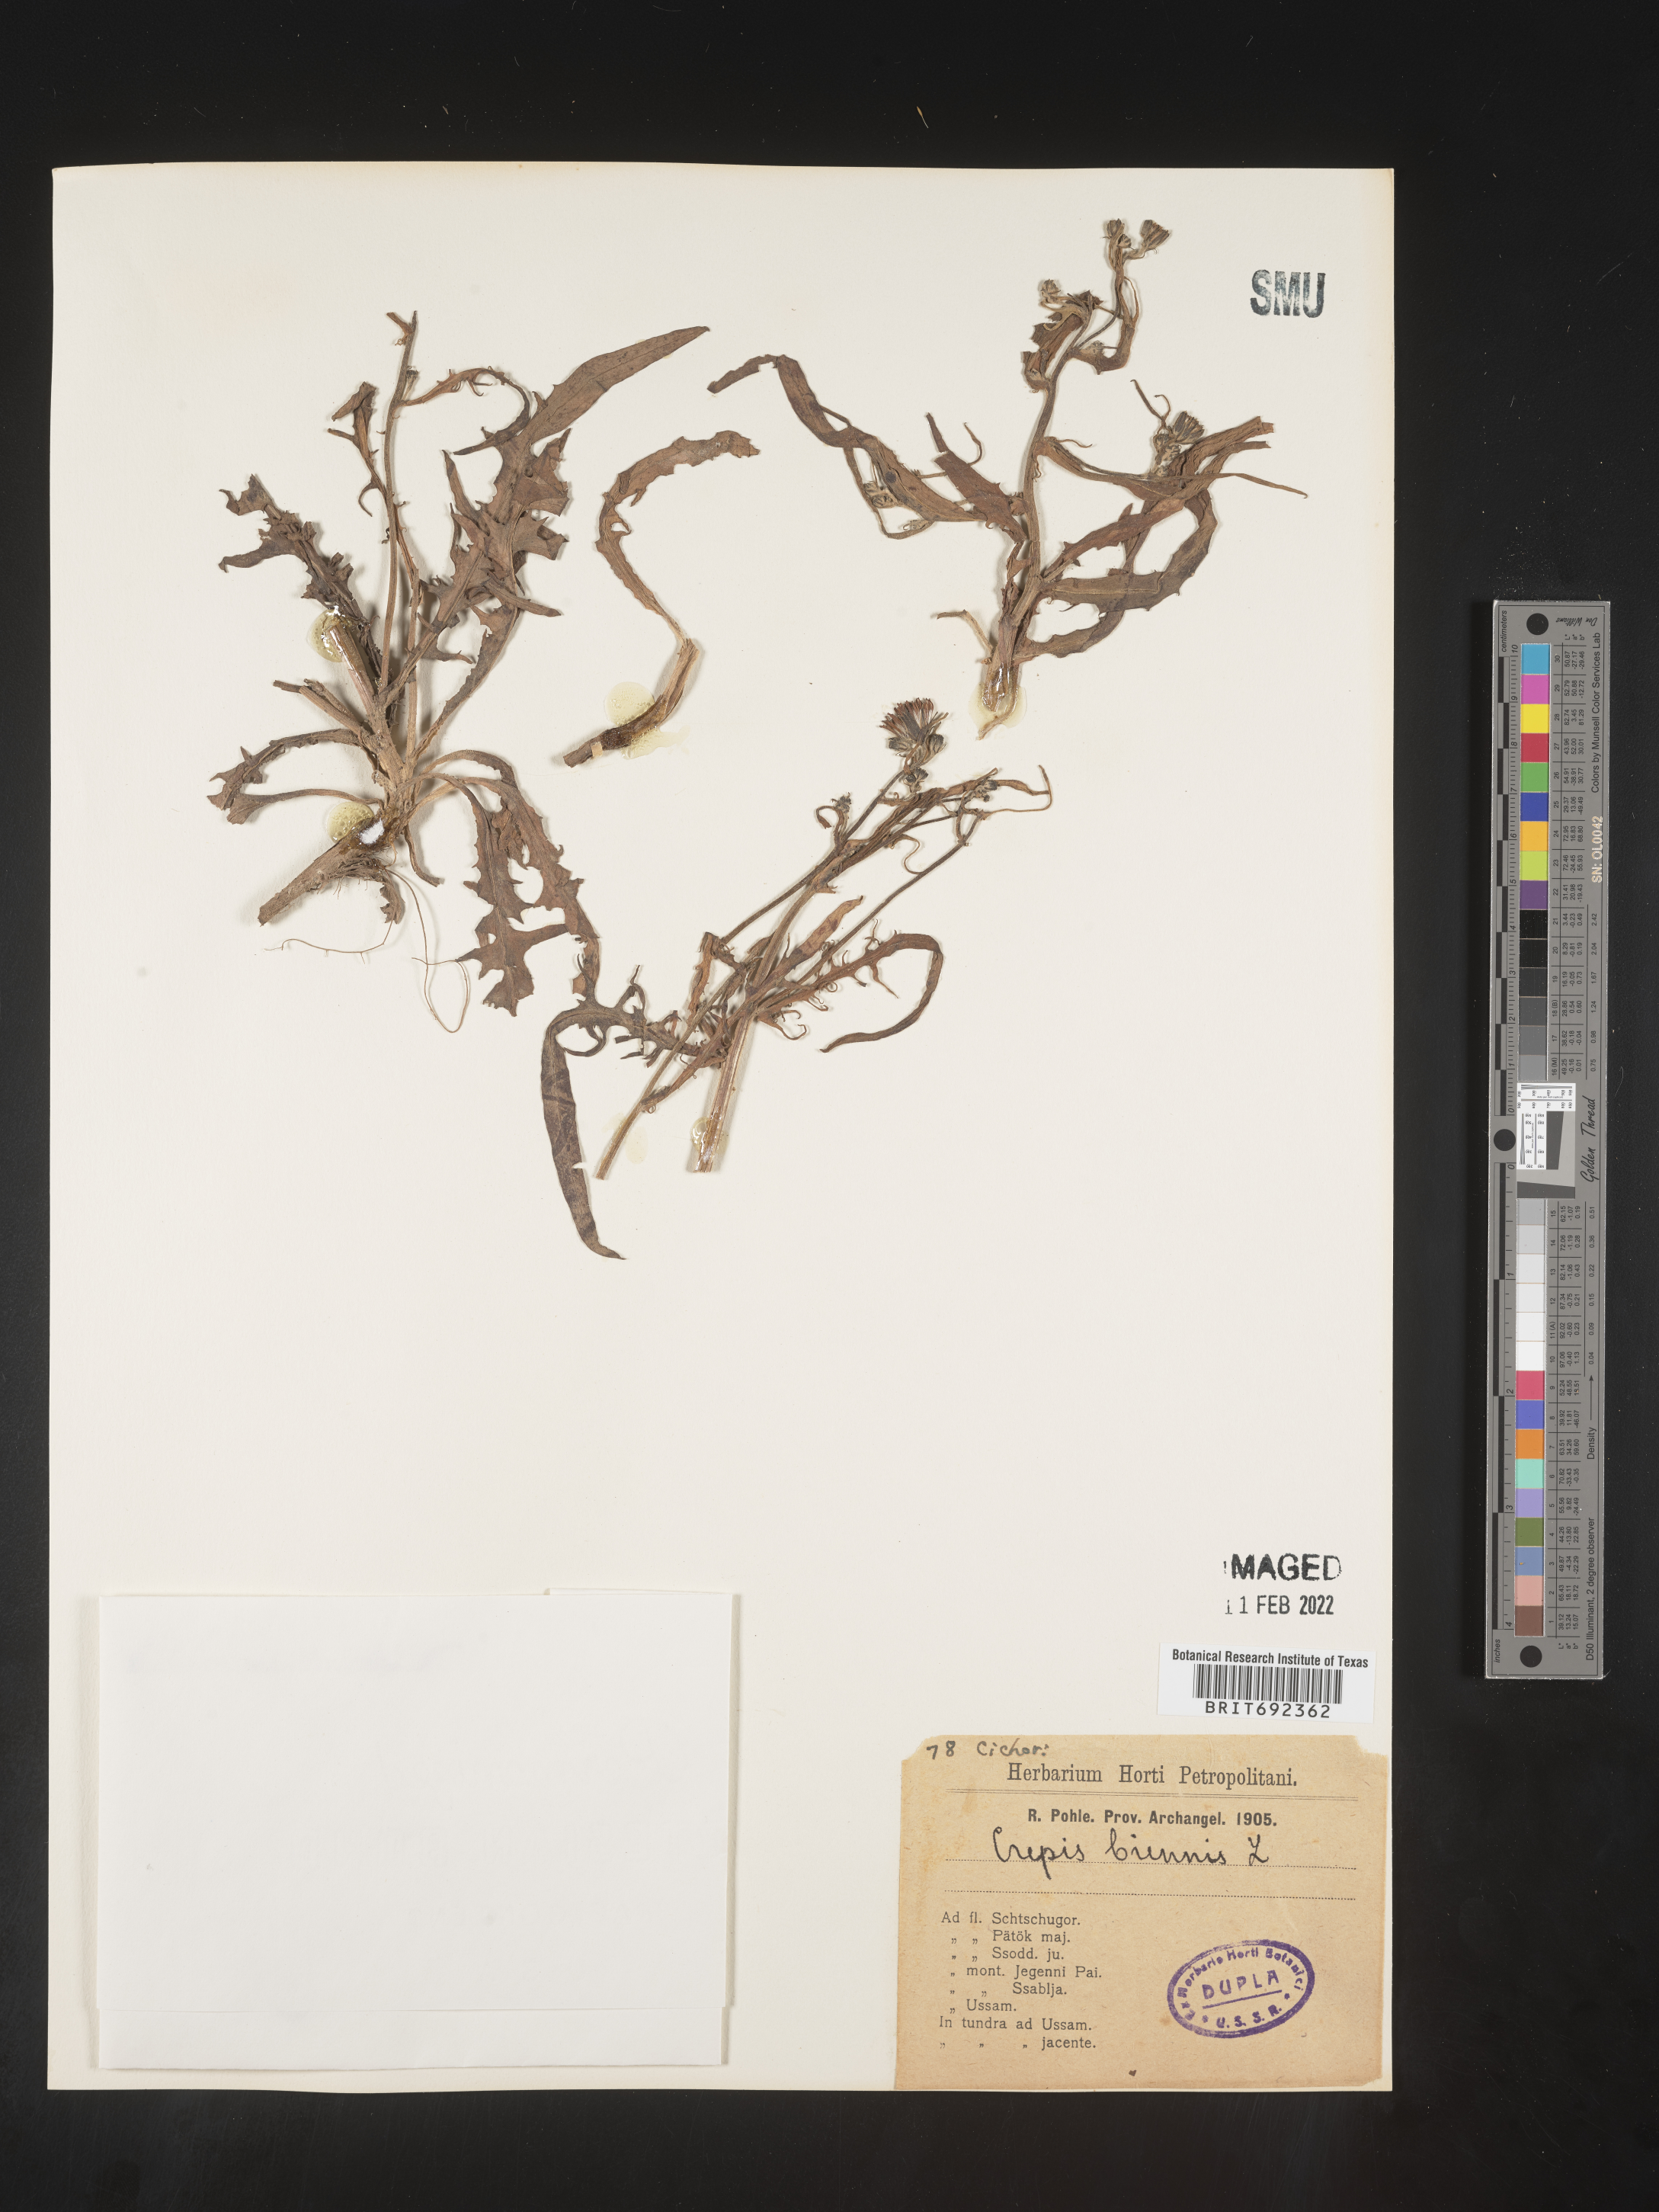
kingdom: Plantae
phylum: Tracheophyta
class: Magnoliopsida
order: Asterales
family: Asteraceae
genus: Crepis
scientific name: Crepis
